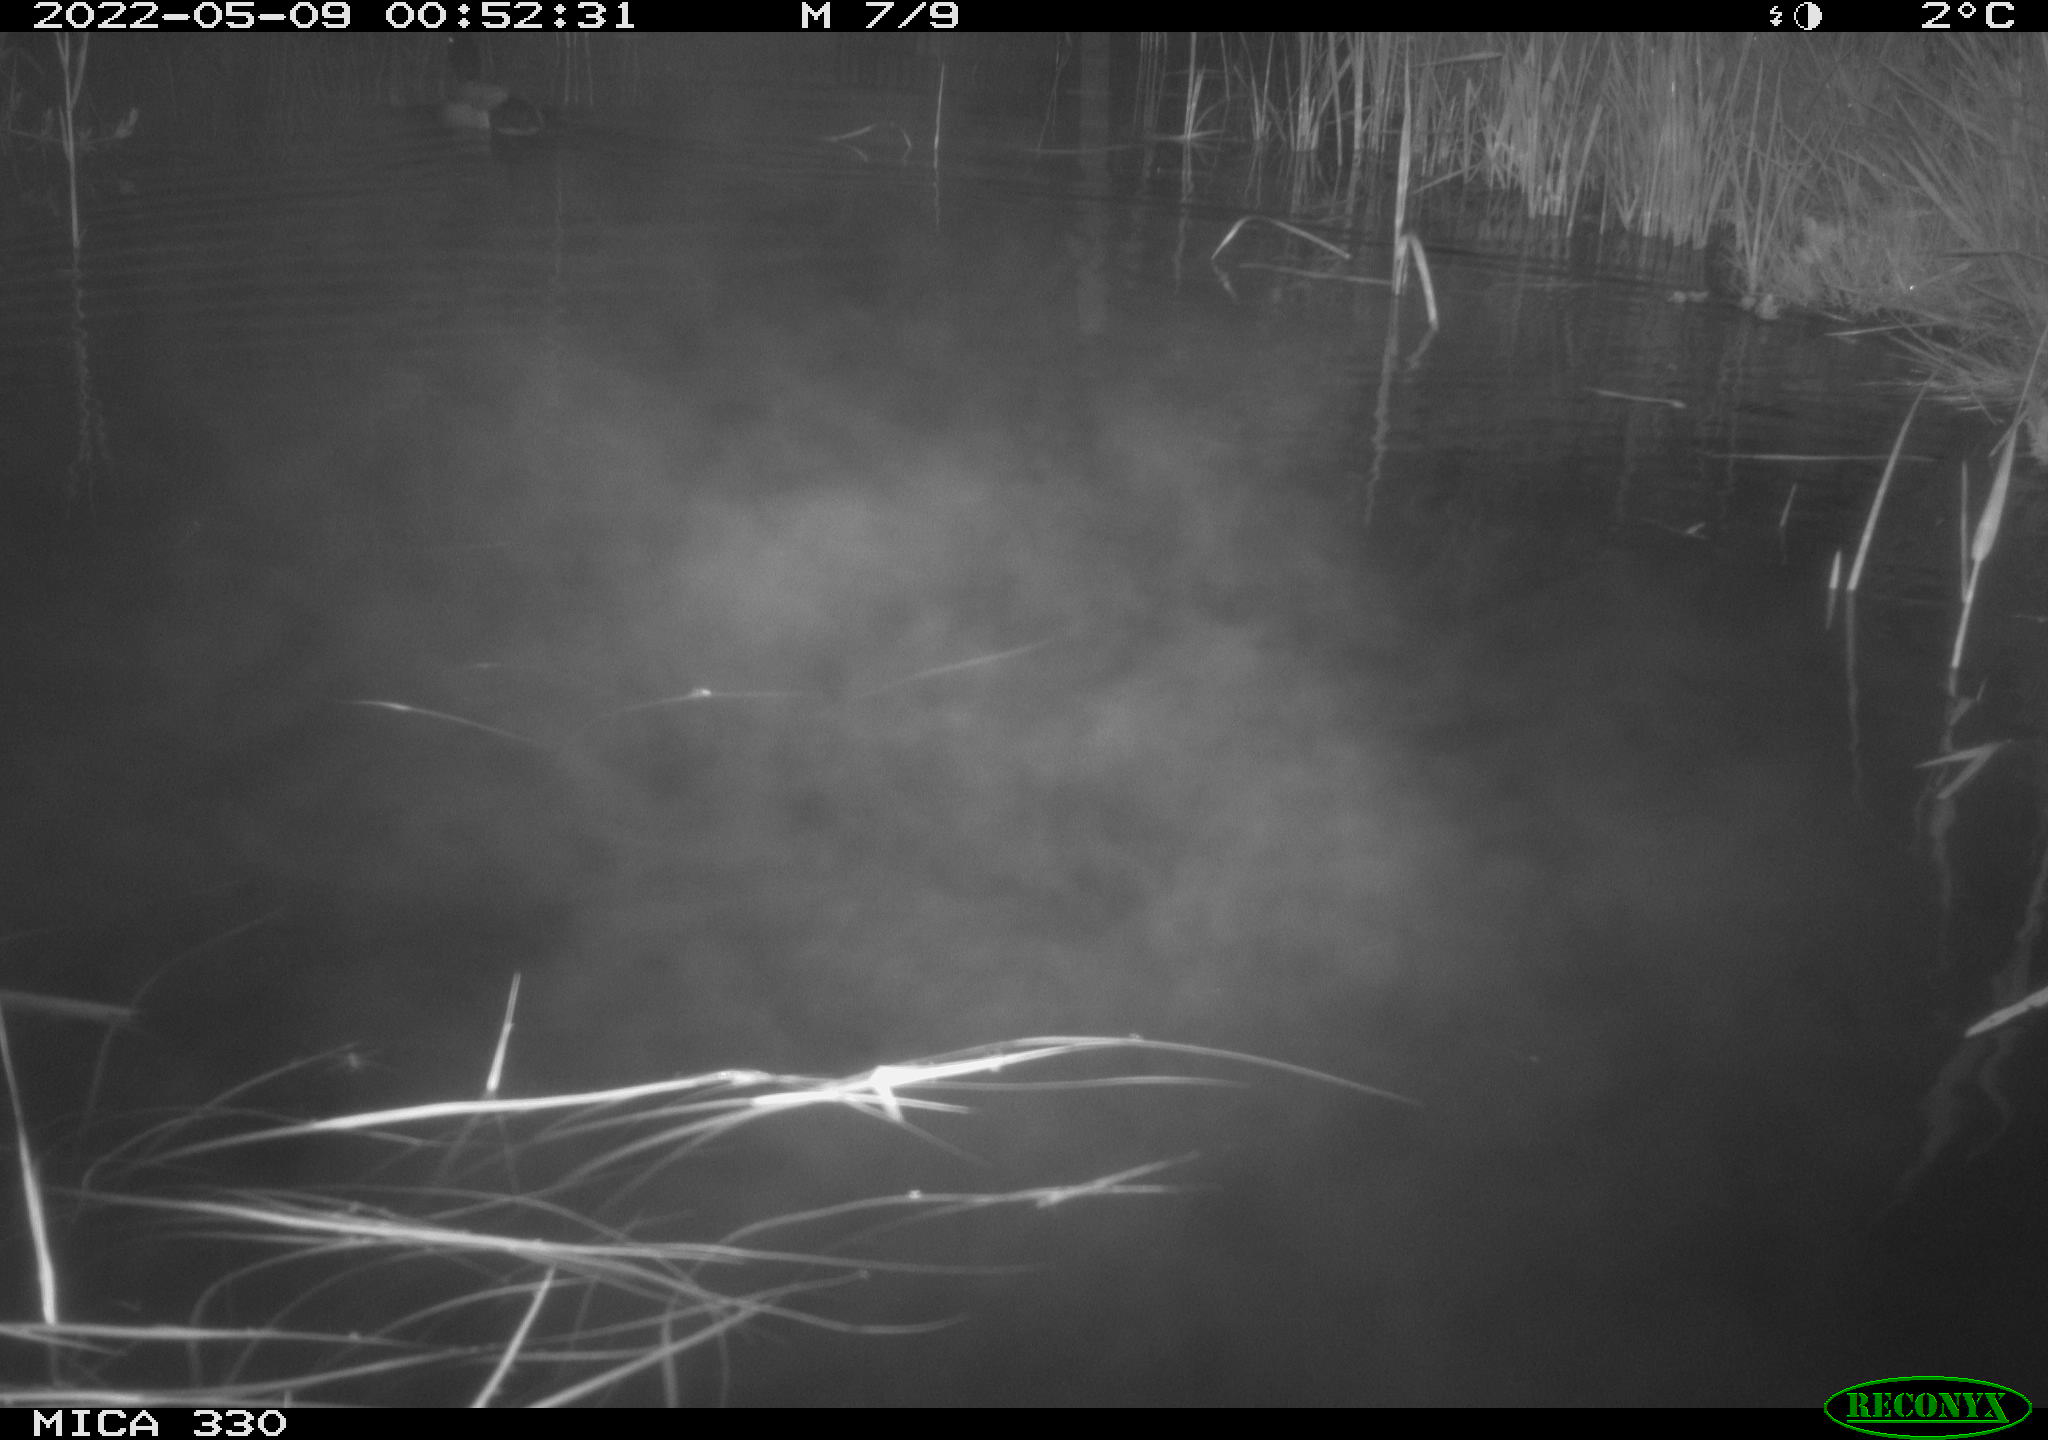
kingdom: Animalia
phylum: Chordata
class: Aves
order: Anseriformes
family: Anatidae
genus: Anas
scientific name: Anas platyrhynchos
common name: Mallard
